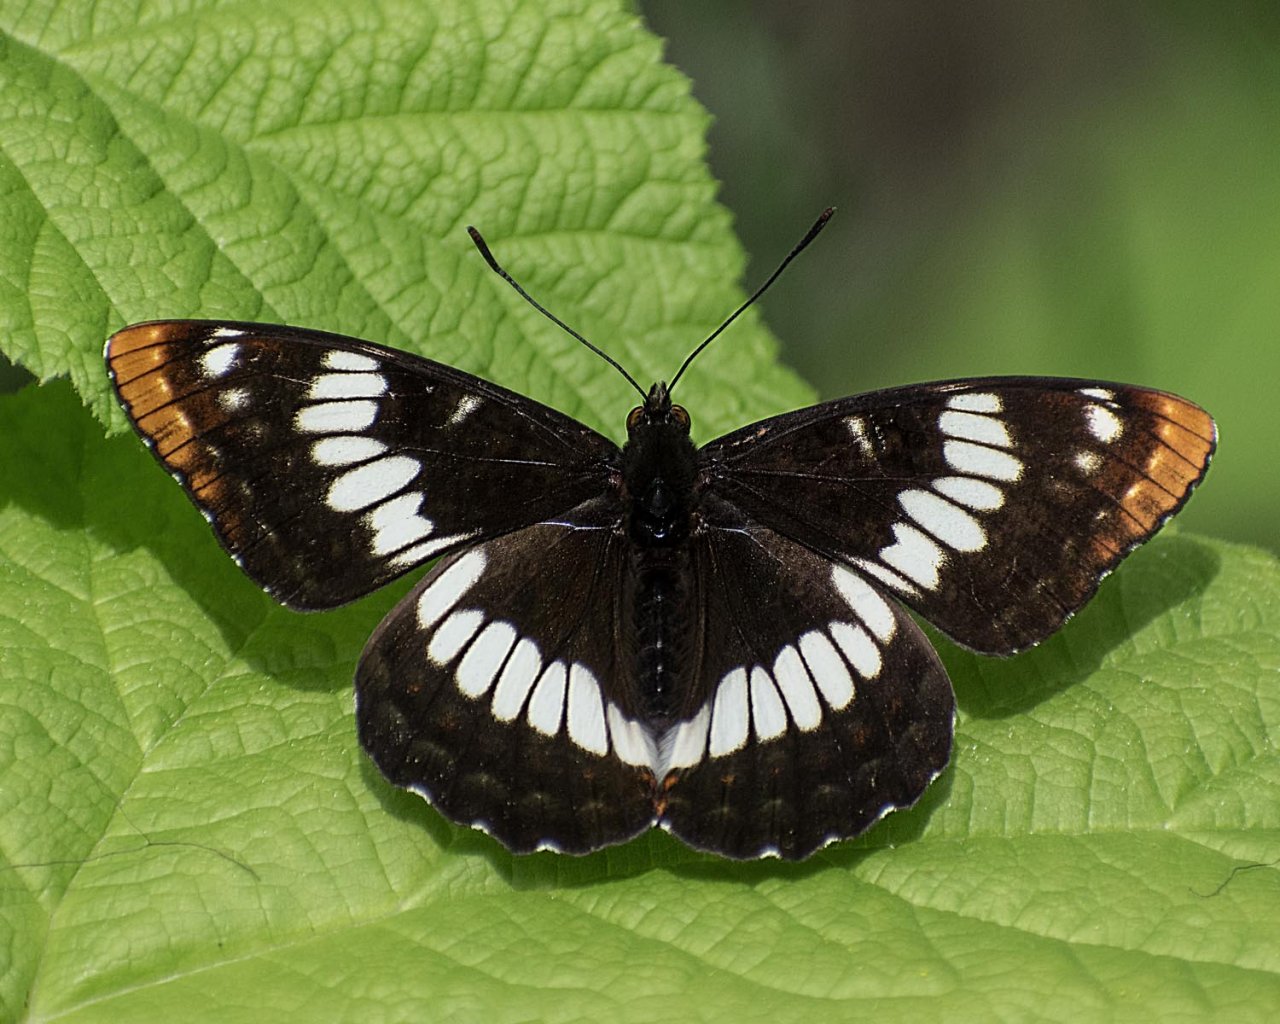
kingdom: Animalia
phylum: Arthropoda
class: Insecta
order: Lepidoptera
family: Nymphalidae
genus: Limenitis
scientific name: Limenitis lorquini
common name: Lorquin's Admiral
